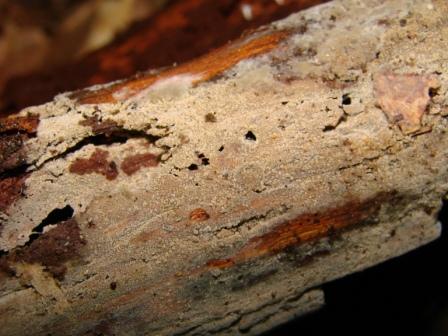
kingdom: Fungi
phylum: Basidiomycota
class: Agaricomycetes
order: Polyporales
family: Meruliaceae
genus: Scopuloides
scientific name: Scopuloides rimosa
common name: dughinde
